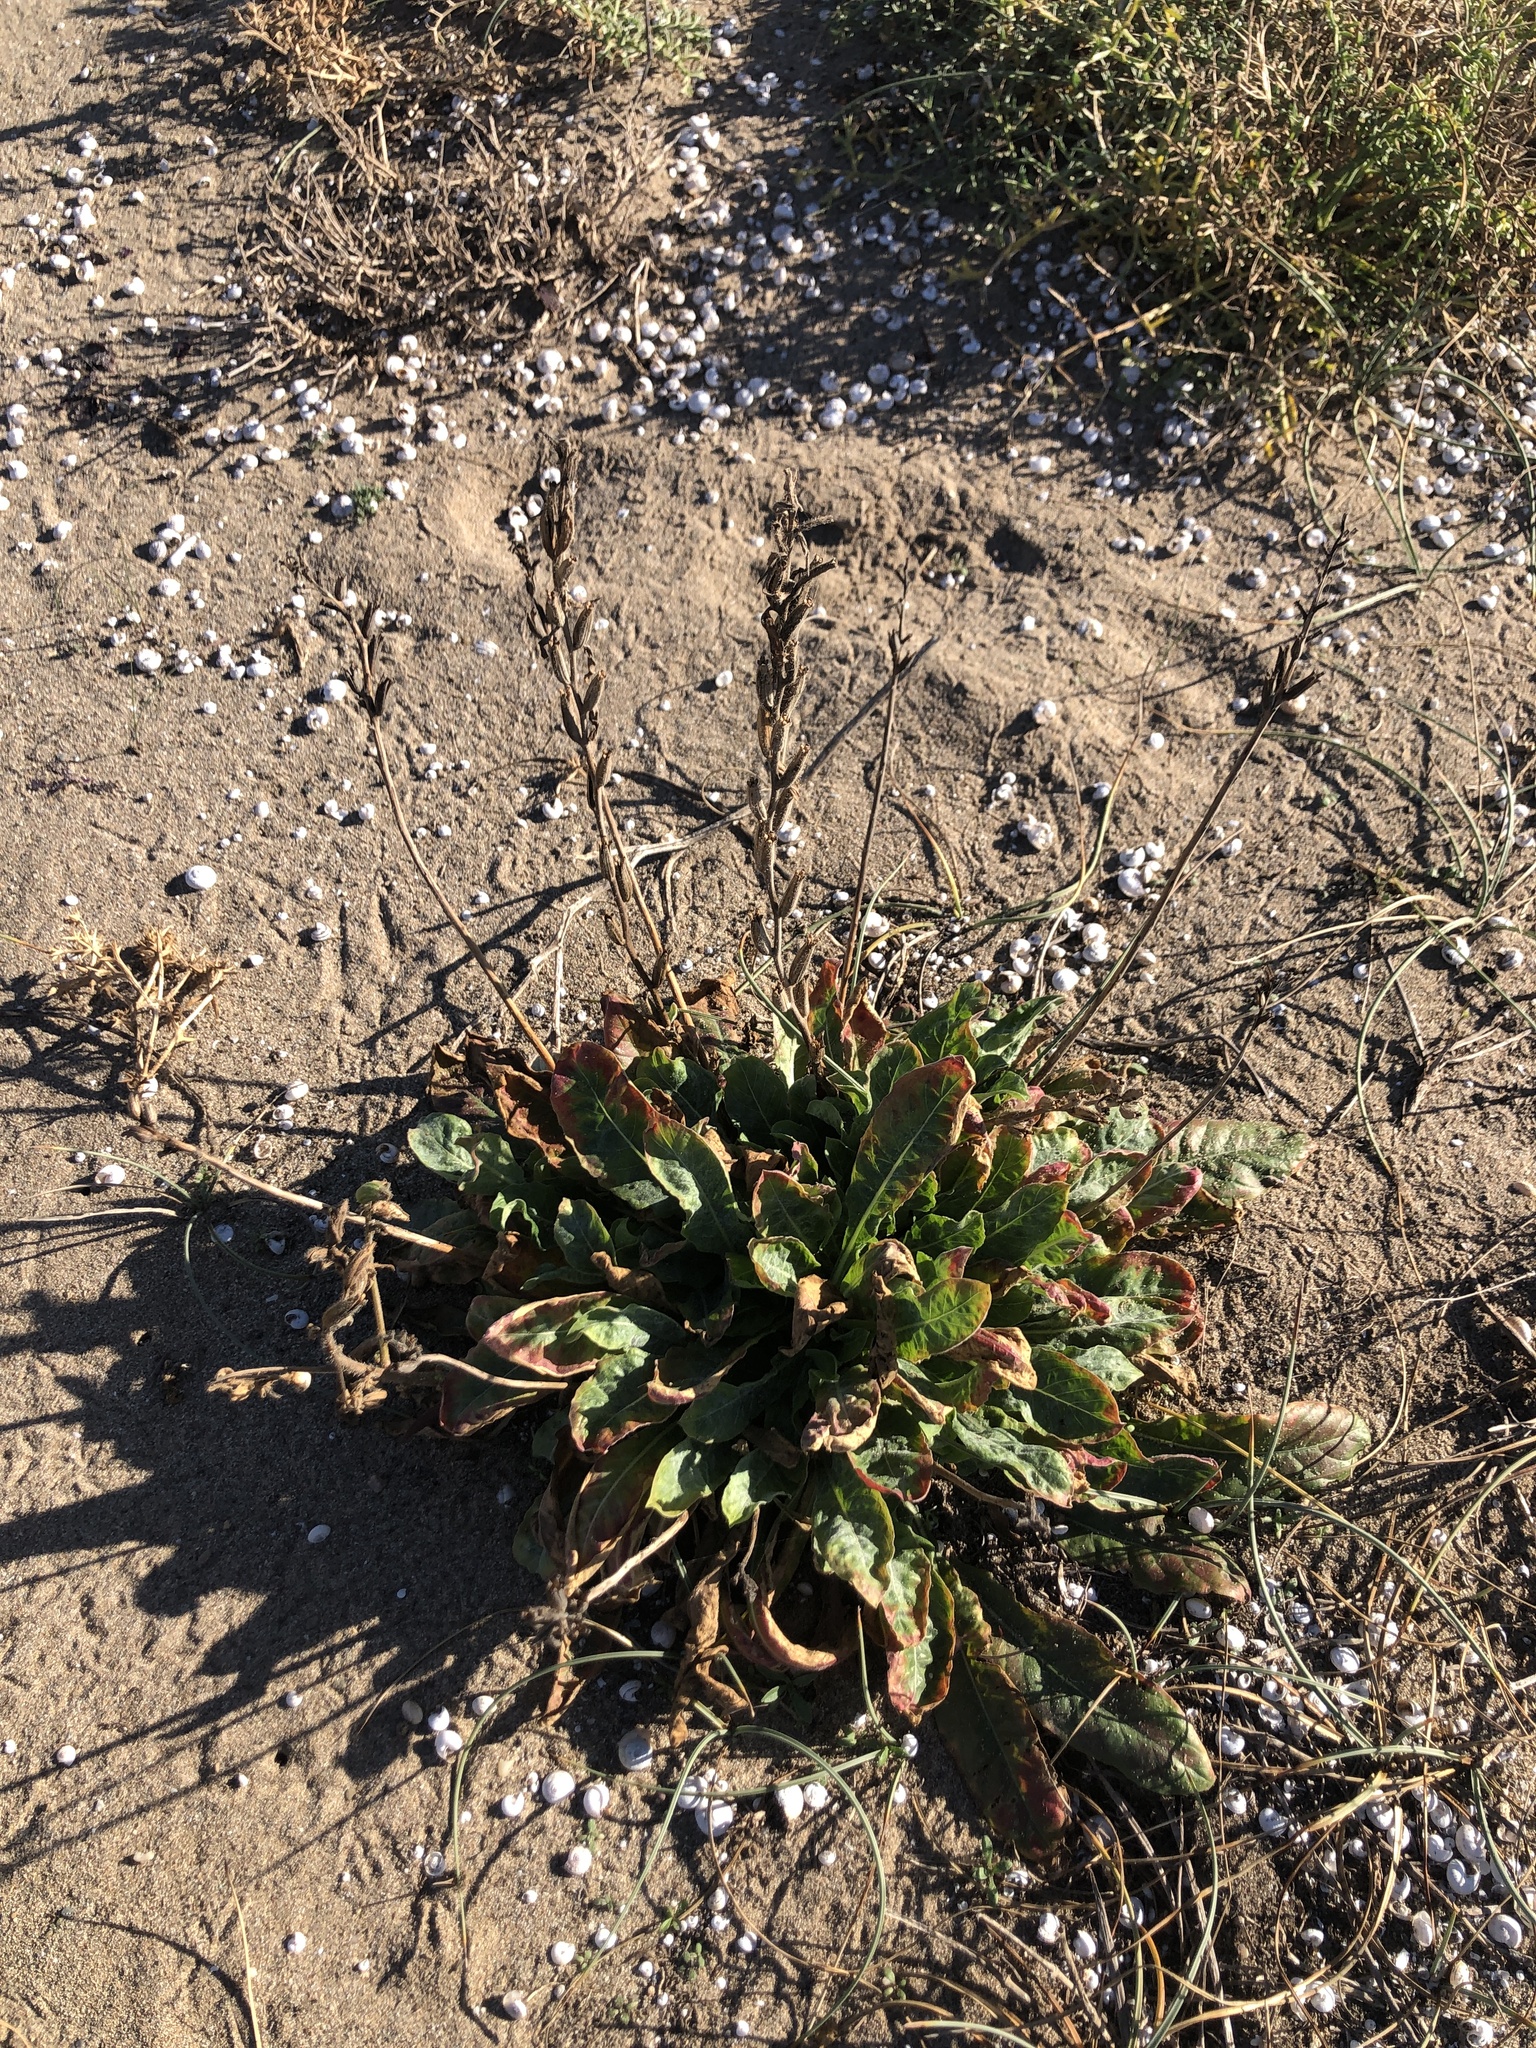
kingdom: Plantae
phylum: Tracheophyta
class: Magnoliopsida
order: Myrtales
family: Onagraceae
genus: Oenothera
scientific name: Oenothera glazioviana
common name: Large-flowered evening-primrose
